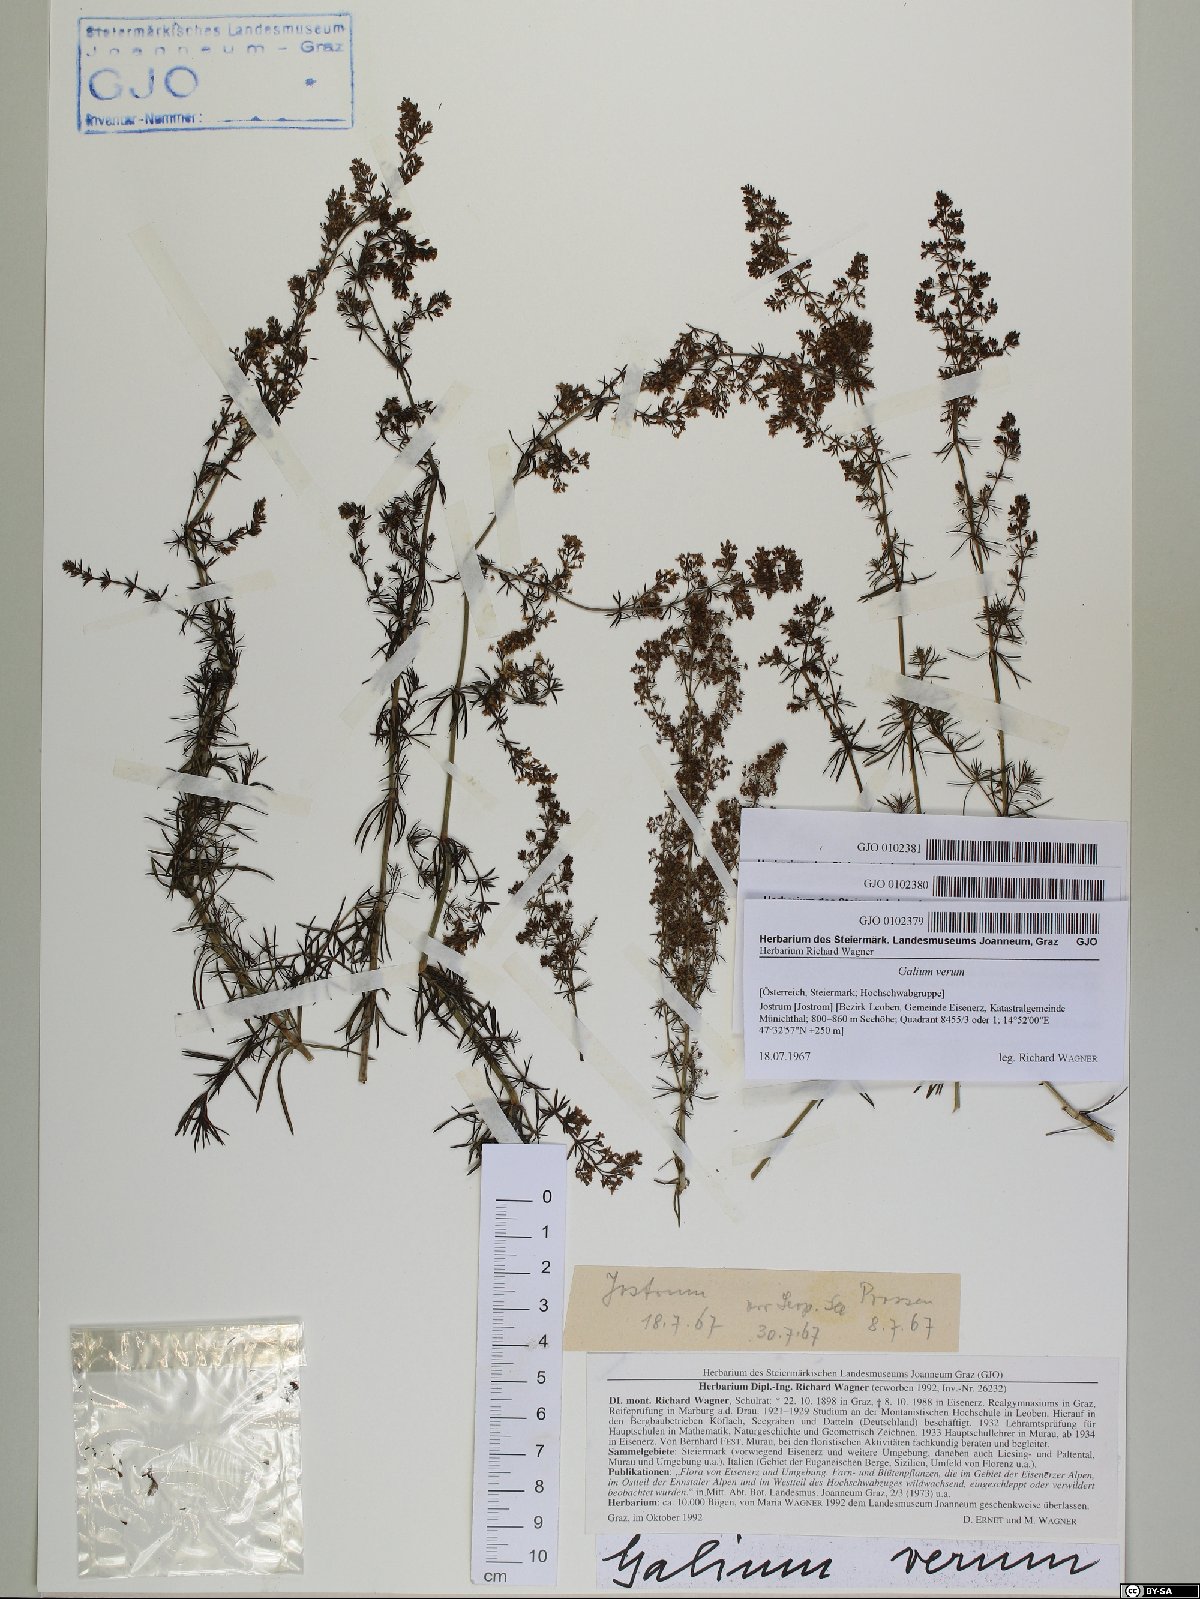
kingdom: Plantae
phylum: Tracheophyta
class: Magnoliopsida
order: Gentianales
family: Rubiaceae
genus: Galium
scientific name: Galium verum
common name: Lady's bedstraw
